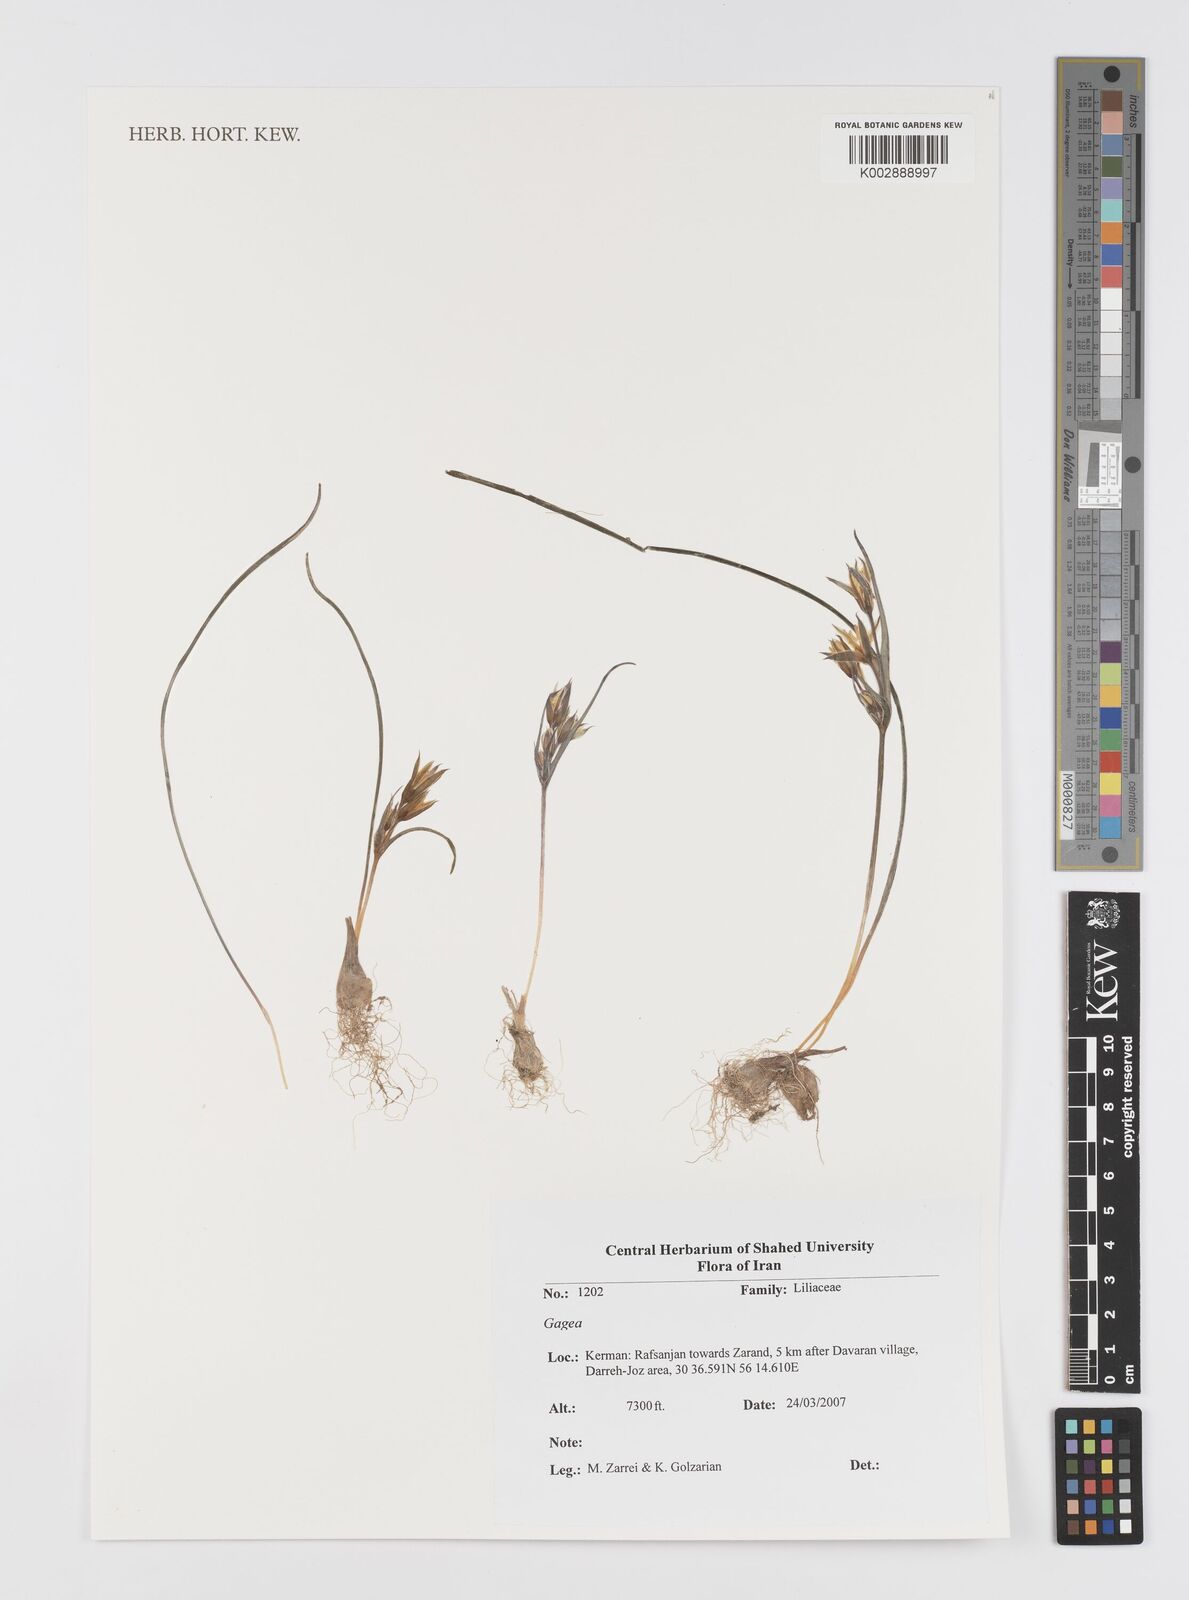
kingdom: Plantae
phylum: Tracheophyta
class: Liliopsida
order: Liliales
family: Liliaceae
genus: Gagea
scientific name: Gagea
